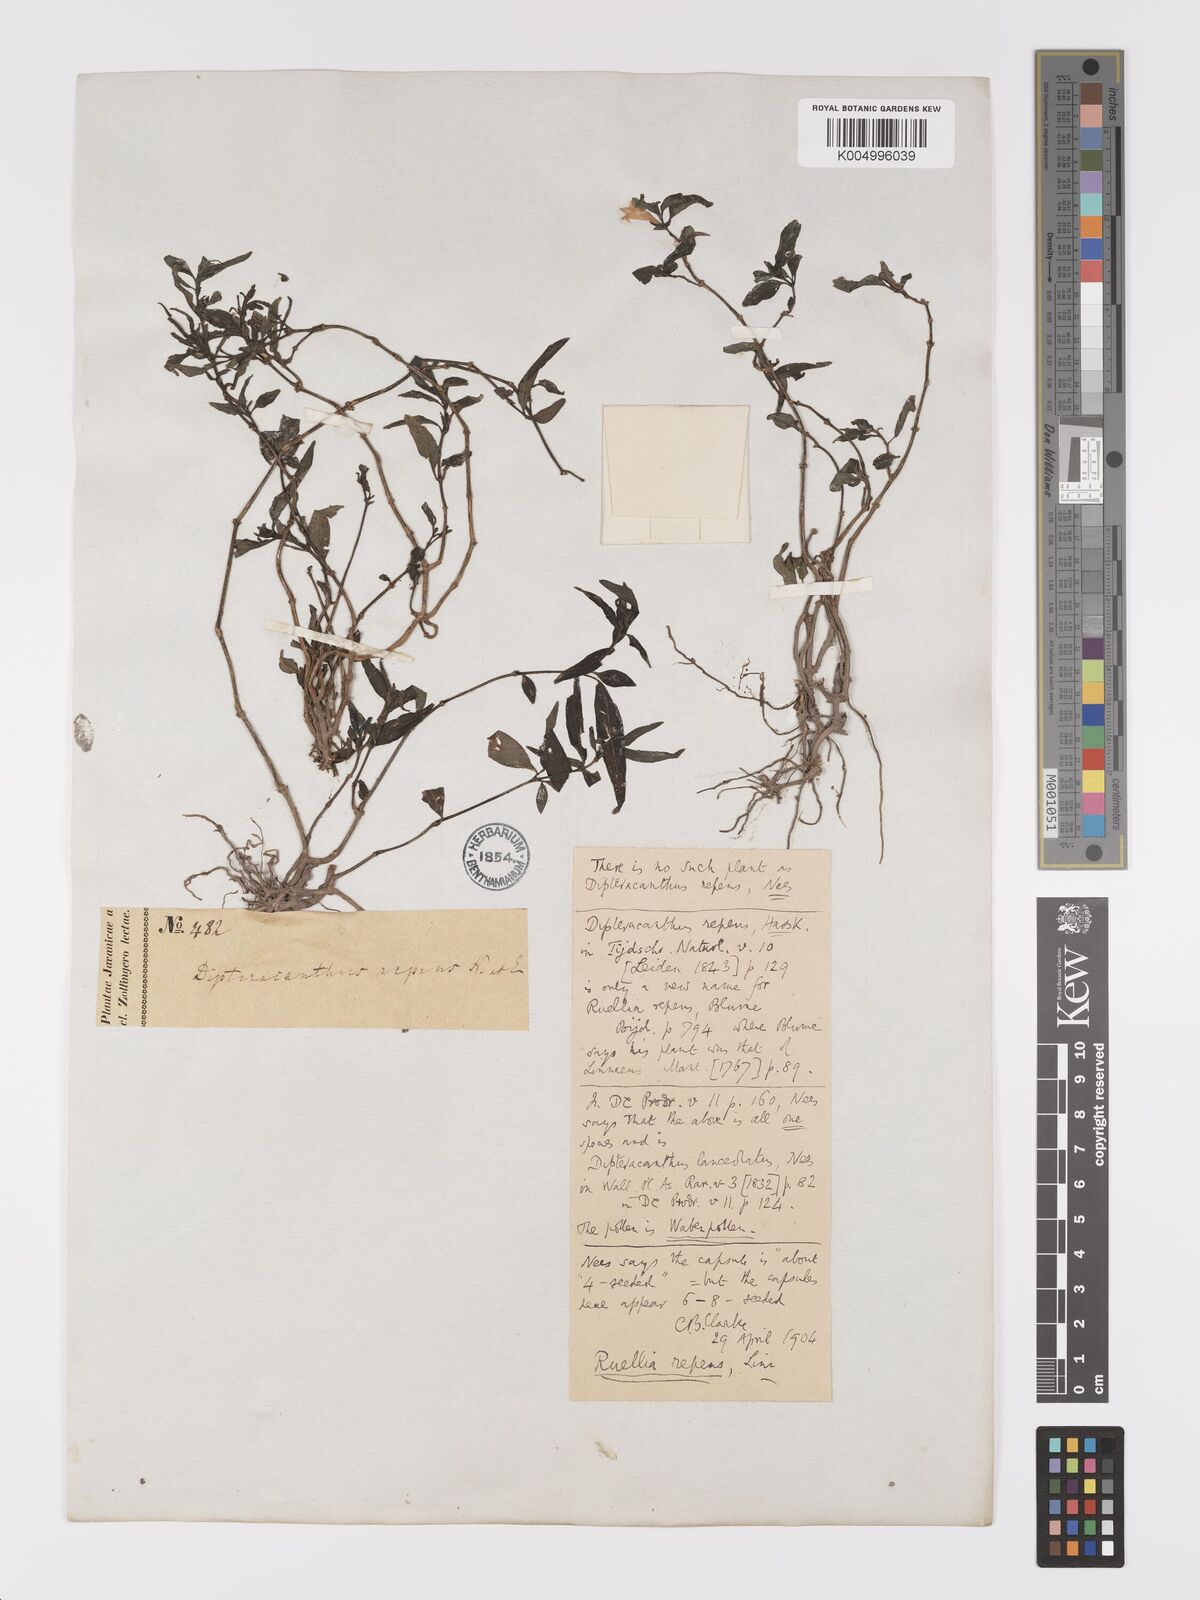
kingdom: Plantae
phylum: Tracheophyta
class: Magnoliopsida
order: Lamiales
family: Acanthaceae
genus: Ruellia
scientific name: Ruellia
